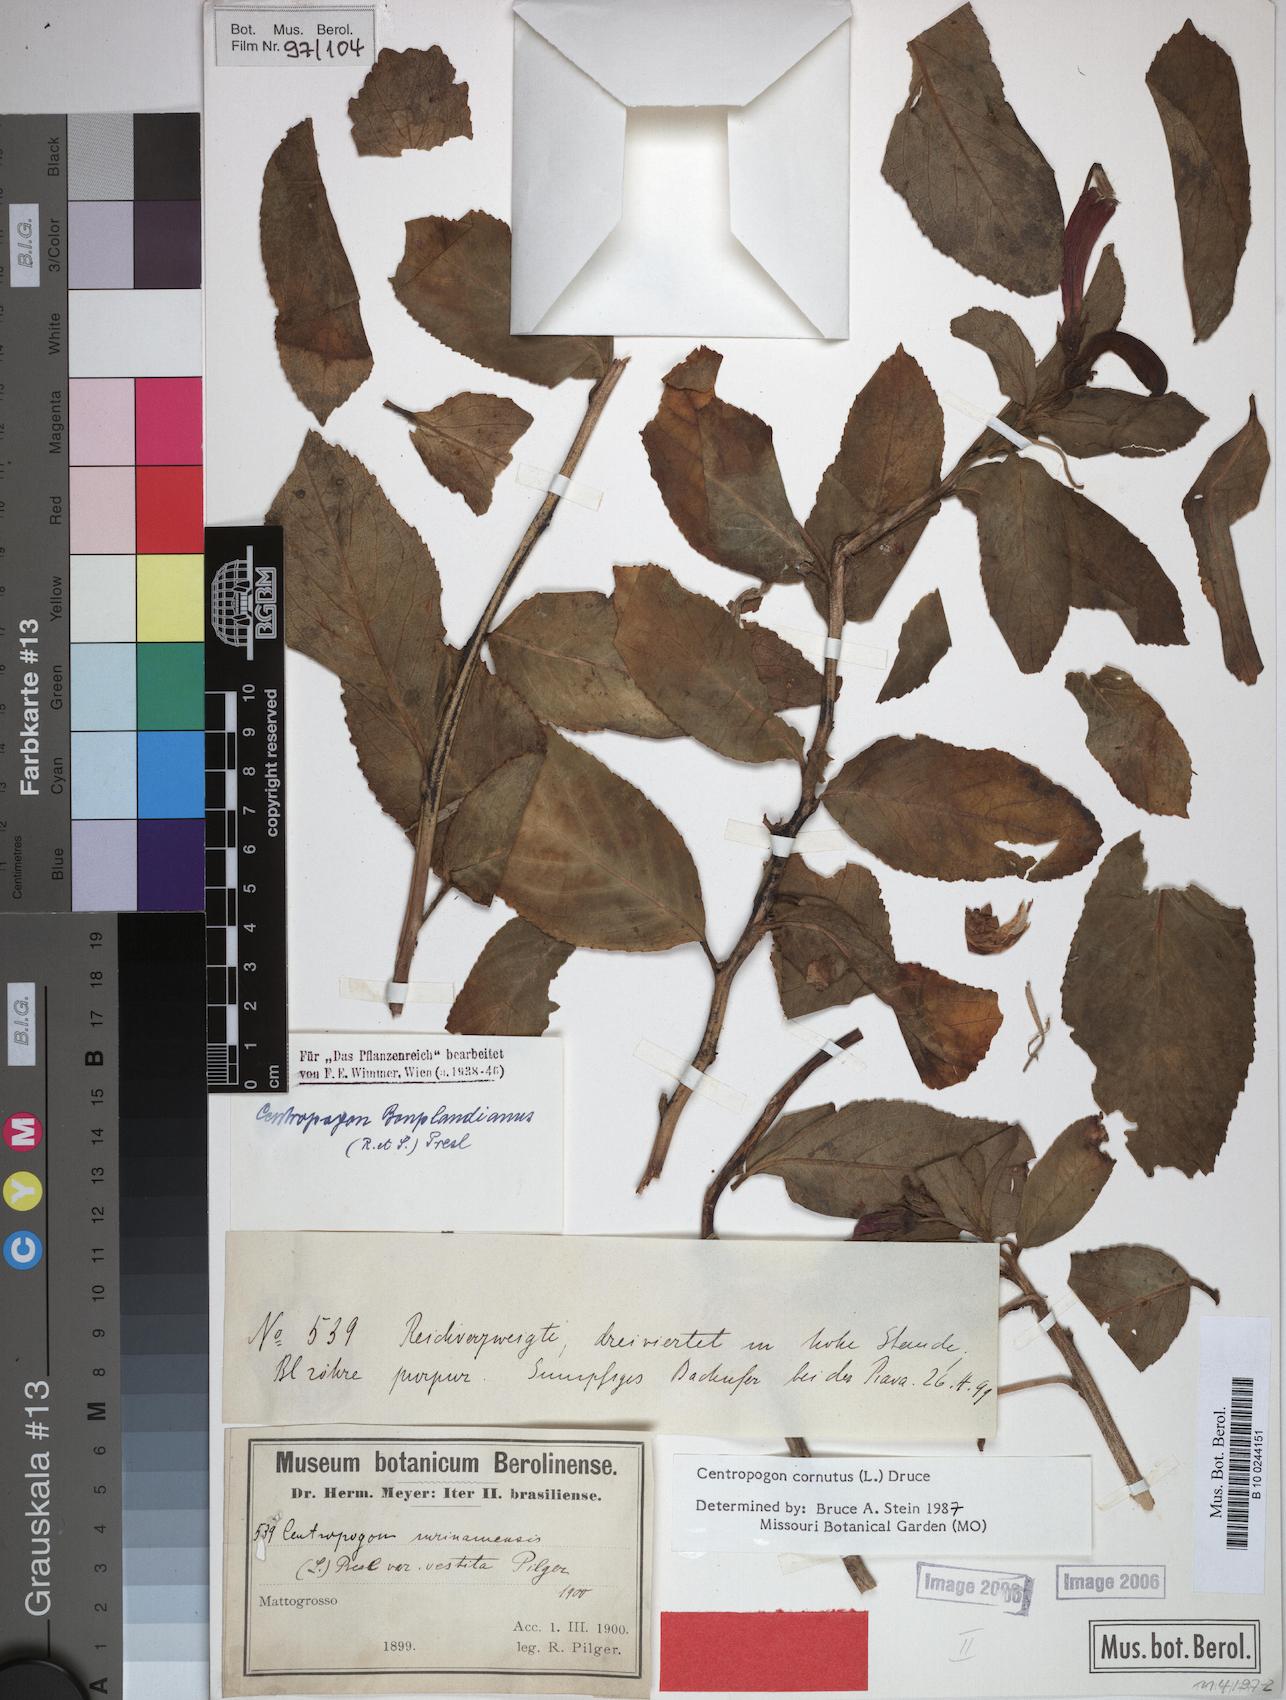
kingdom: Plantae
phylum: Tracheophyta
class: Magnoliopsida
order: Asterales
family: Campanulaceae
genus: Centropogon
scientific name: Centropogon cornutus
